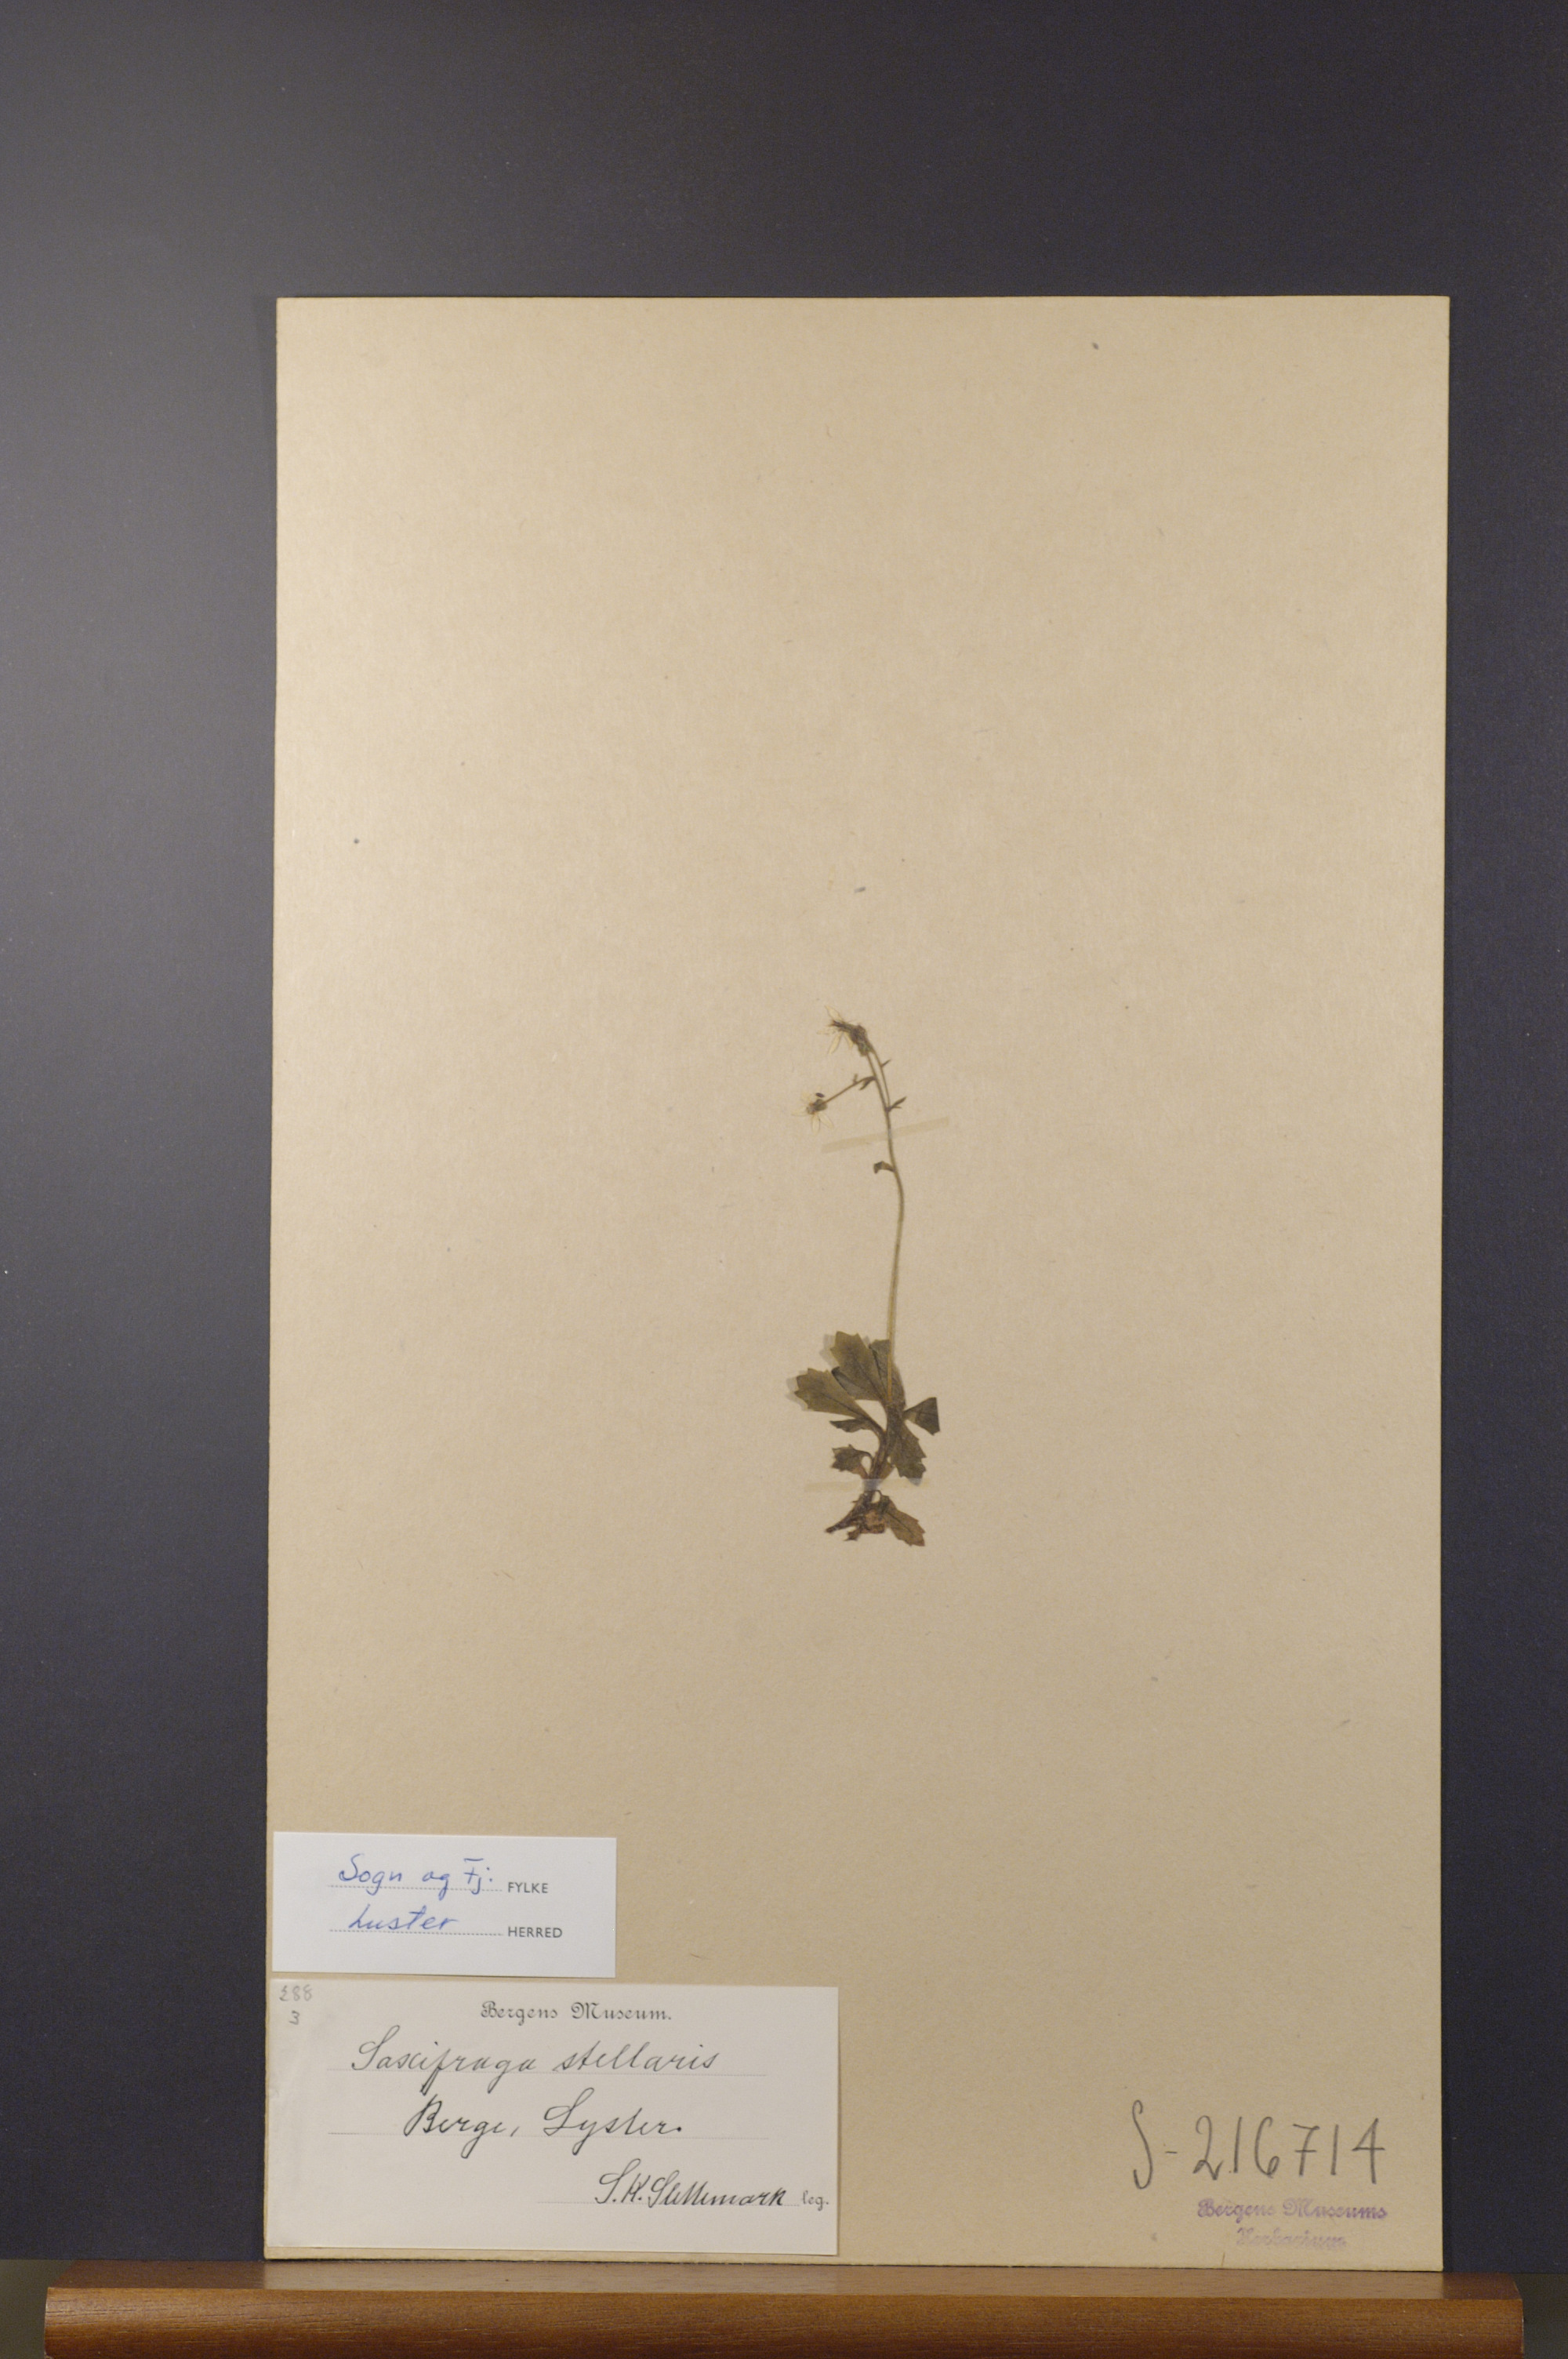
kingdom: Plantae
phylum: Tracheophyta
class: Magnoliopsida
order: Saxifragales
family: Saxifragaceae
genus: Micranthes
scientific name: Micranthes stellaris
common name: Starry saxifrage
